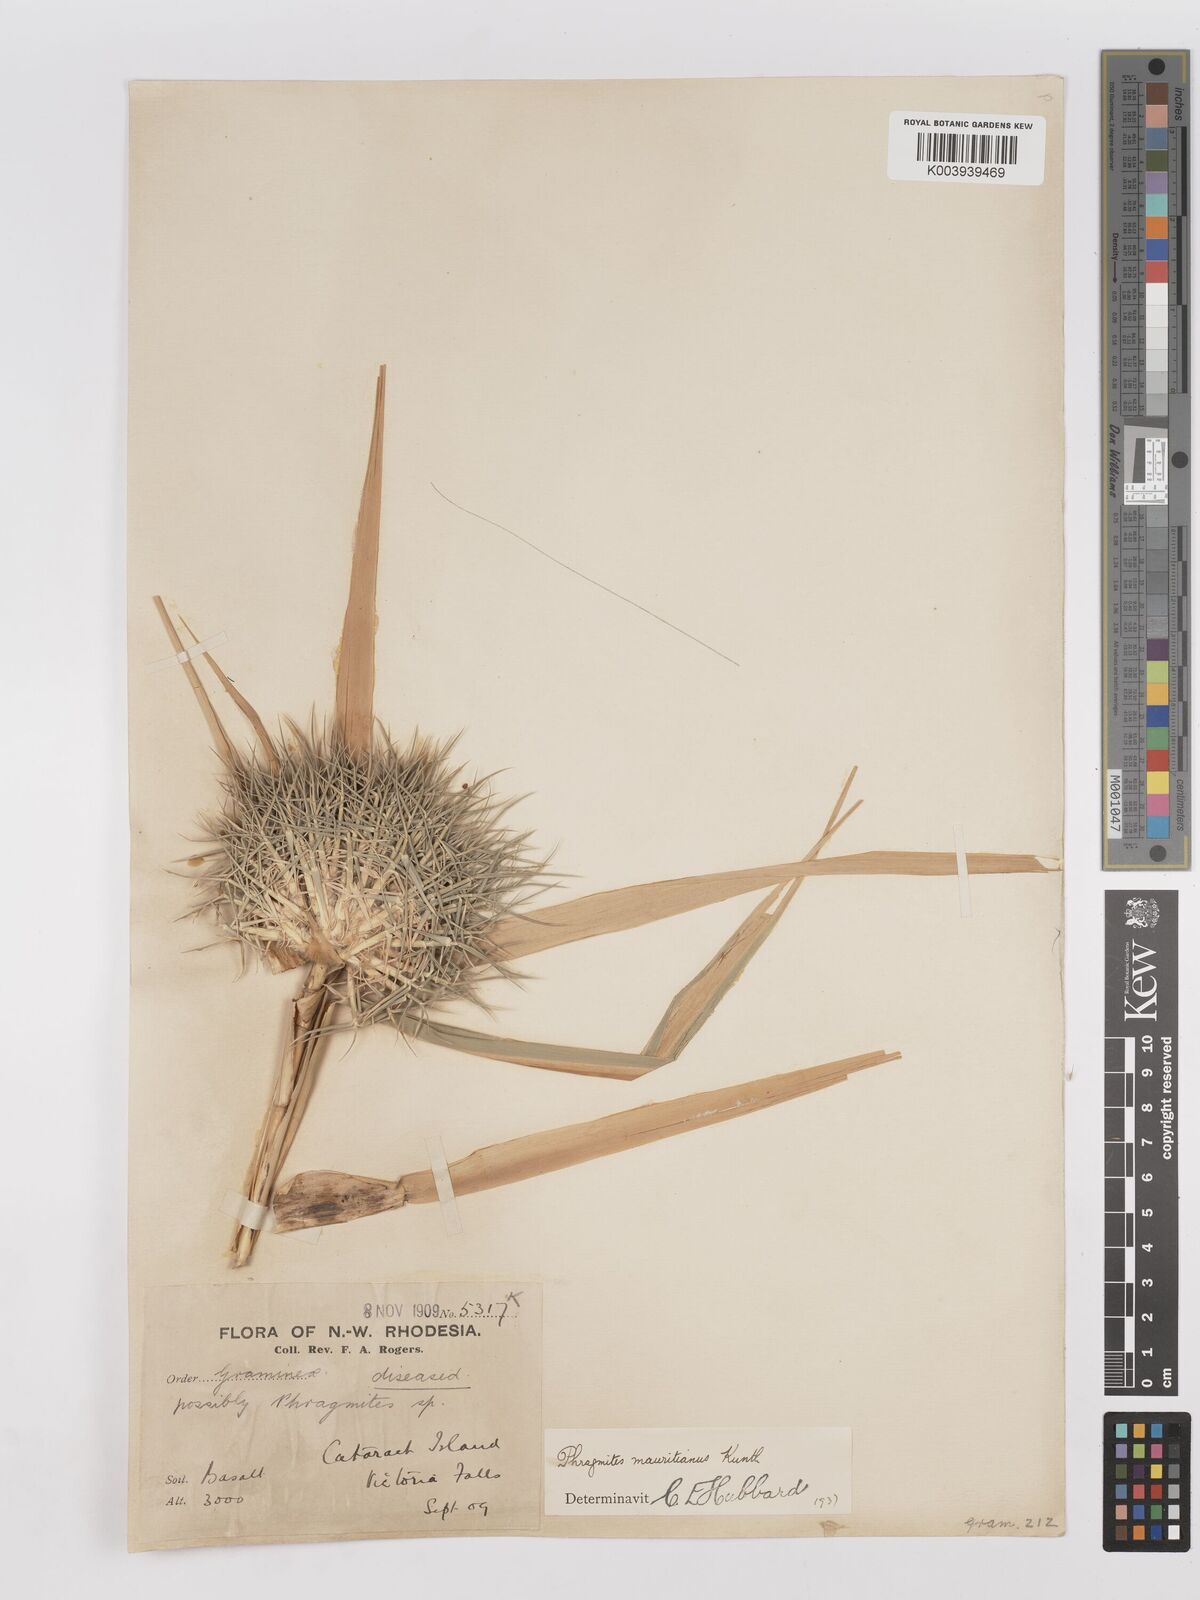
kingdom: Plantae
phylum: Tracheophyta
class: Liliopsida
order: Poales
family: Poaceae
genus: Phragmites
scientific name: Phragmites mauritianus
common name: Reed grass
